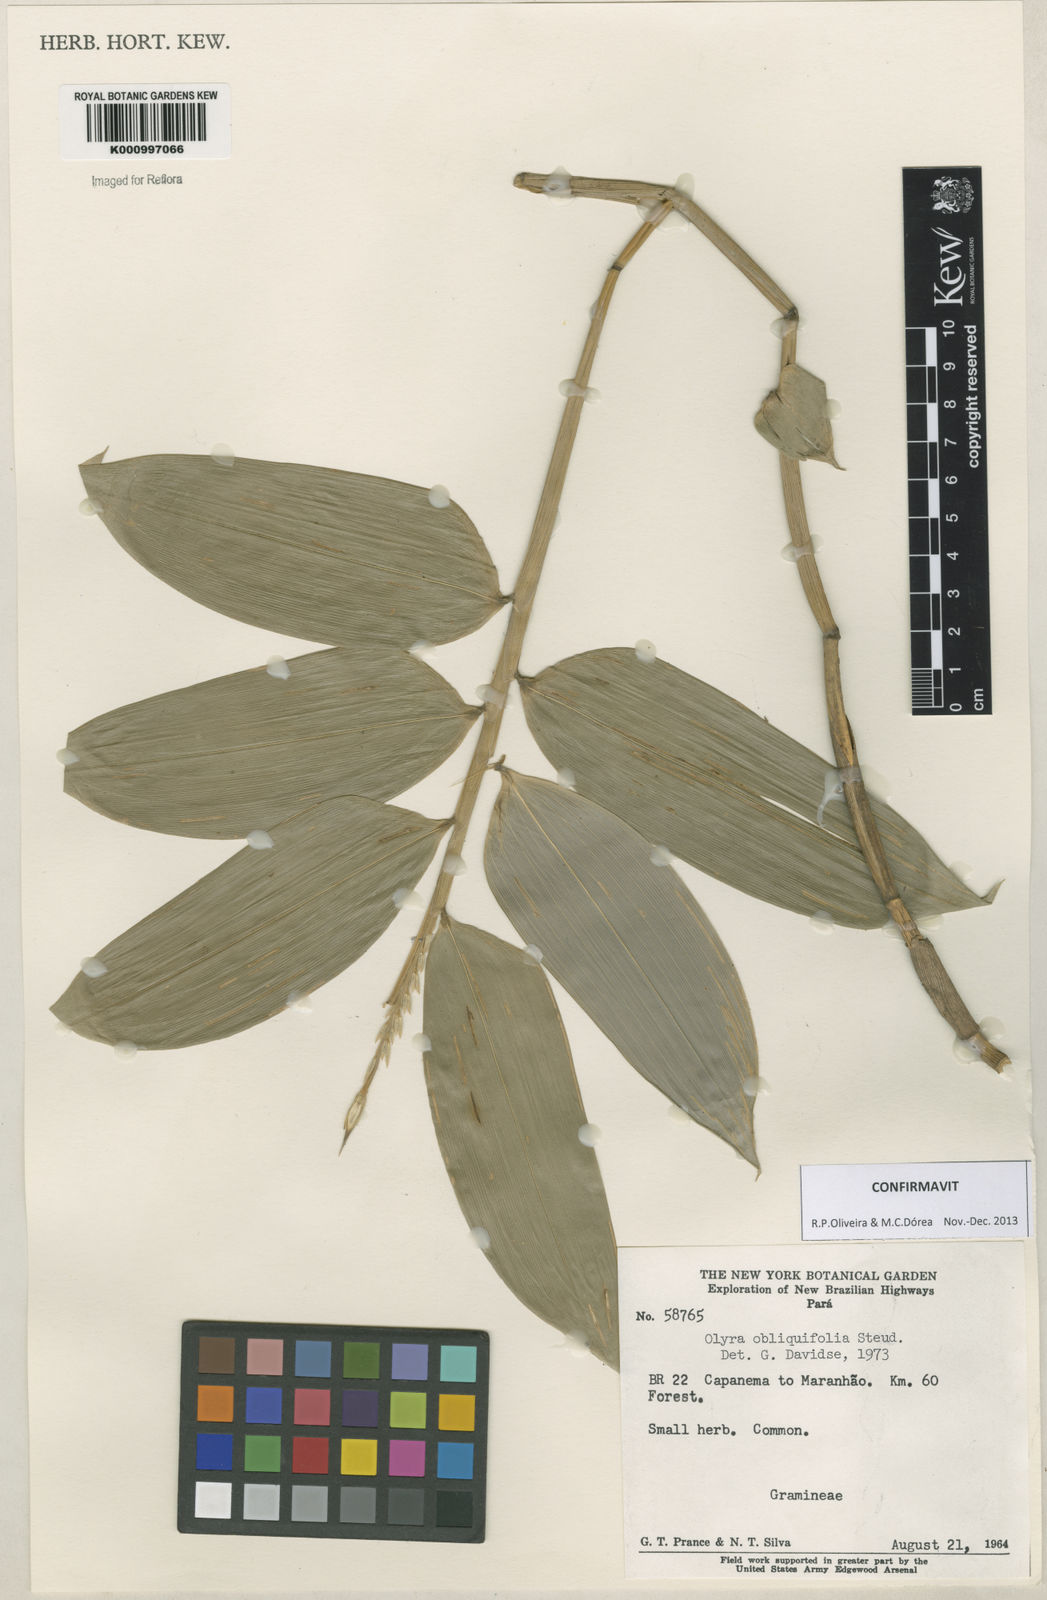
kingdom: Plantae
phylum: Tracheophyta
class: Liliopsida
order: Poales
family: Poaceae
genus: Olyra
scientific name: Olyra obliquifolia
